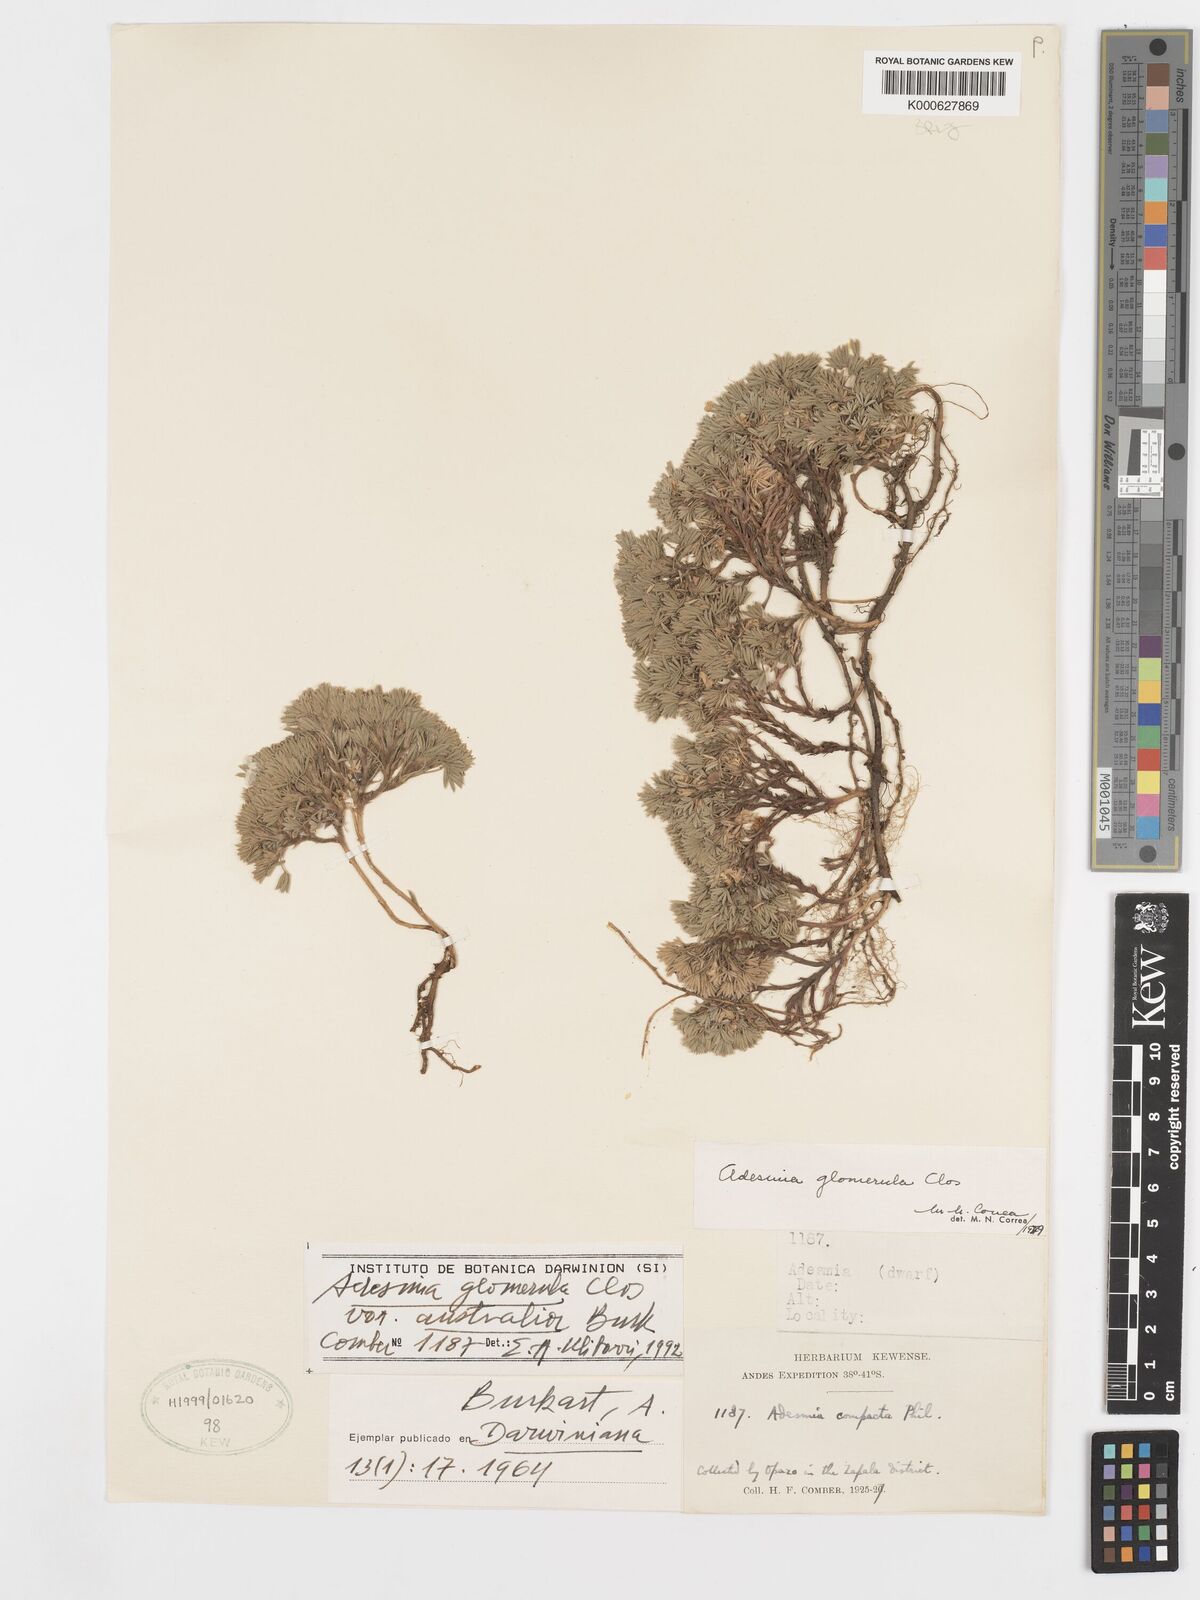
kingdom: Plantae
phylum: Tracheophyta
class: Magnoliopsida
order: Fabales
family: Fabaceae
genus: Adesmia
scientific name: Adesmia glomerula
